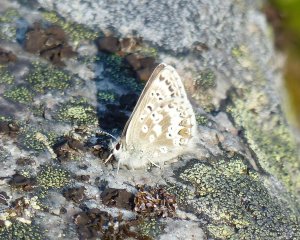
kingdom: Animalia
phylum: Arthropoda
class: Insecta
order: Lepidoptera
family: Lycaenidae
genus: Agriades
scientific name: Agriades glandon
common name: Arctic Blue
